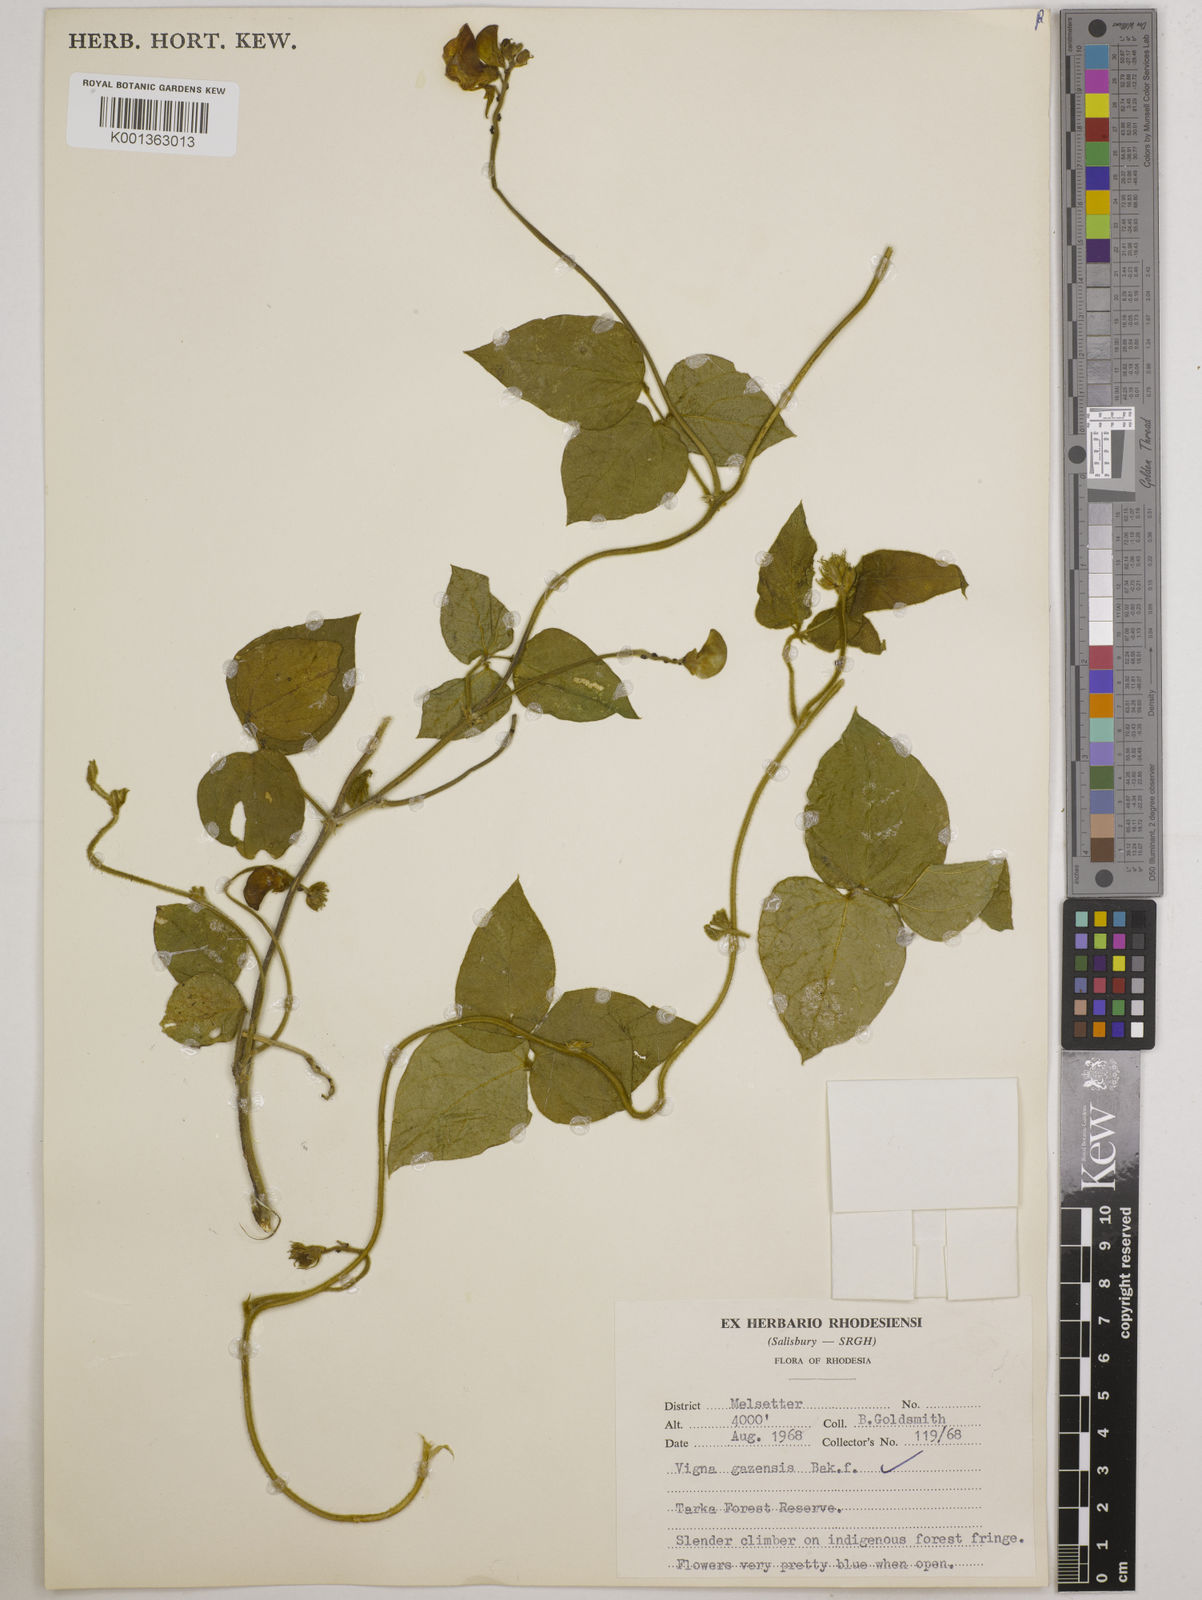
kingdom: Plantae
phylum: Tracheophyta
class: Magnoliopsida
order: Fabales
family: Fabaceae
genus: Vigna
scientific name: Vigna gazensis
